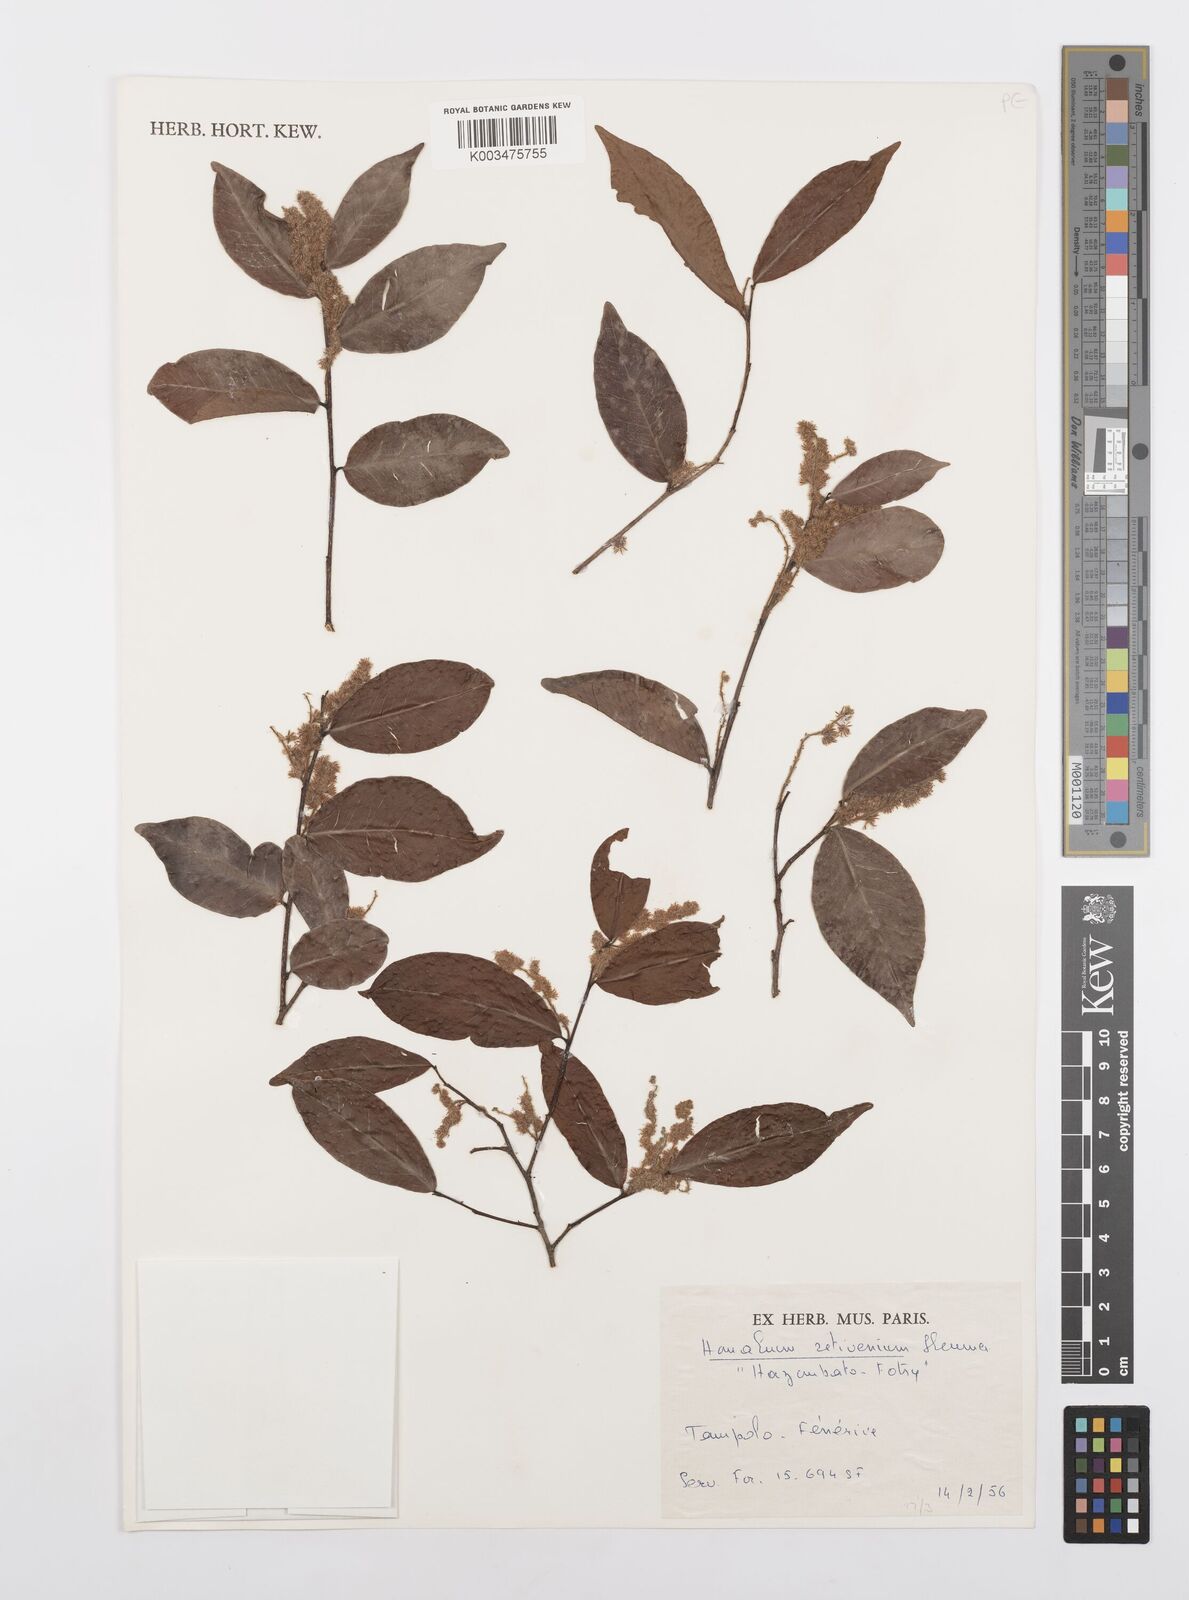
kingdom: Plantae
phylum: Tracheophyta
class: Magnoliopsida
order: Malpighiales
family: Salicaceae
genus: Homalium
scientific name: Homalium retivenium
